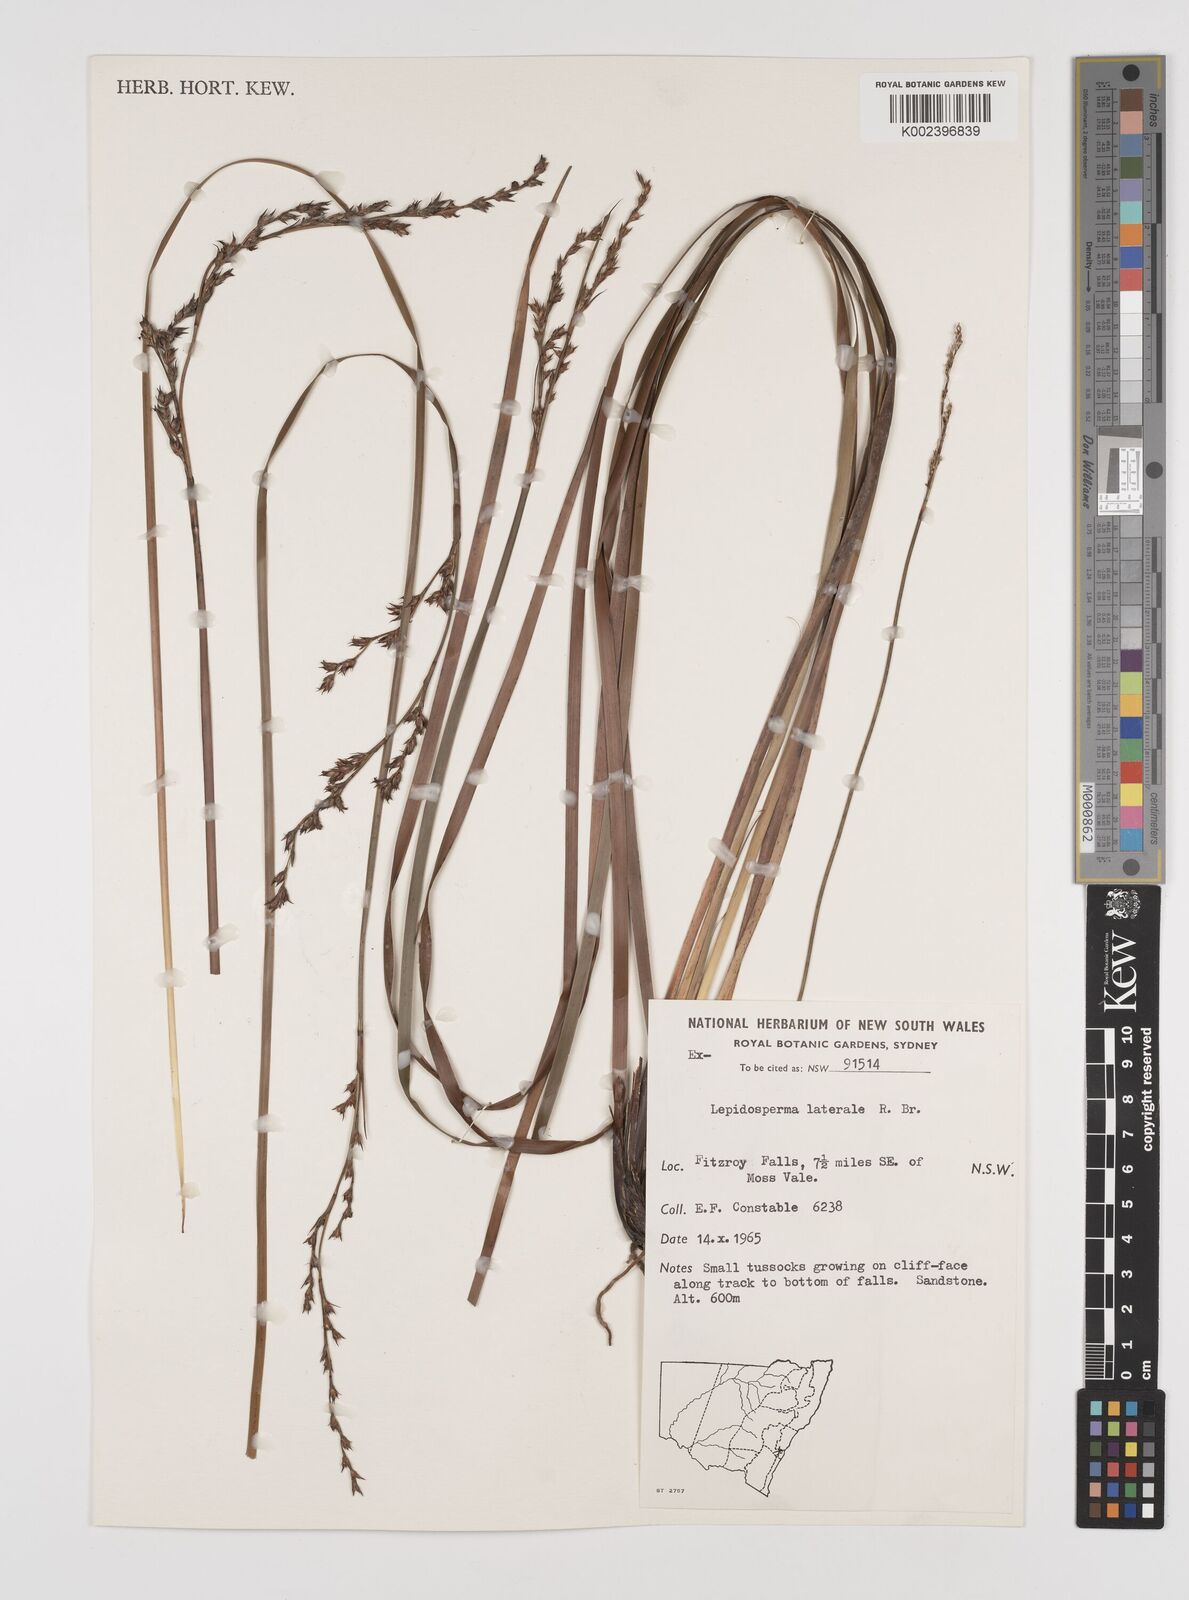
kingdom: Plantae
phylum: Tracheophyta
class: Liliopsida
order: Poales
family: Cyperaceae
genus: Lepidosperma
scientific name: Lepidosperma laterale
